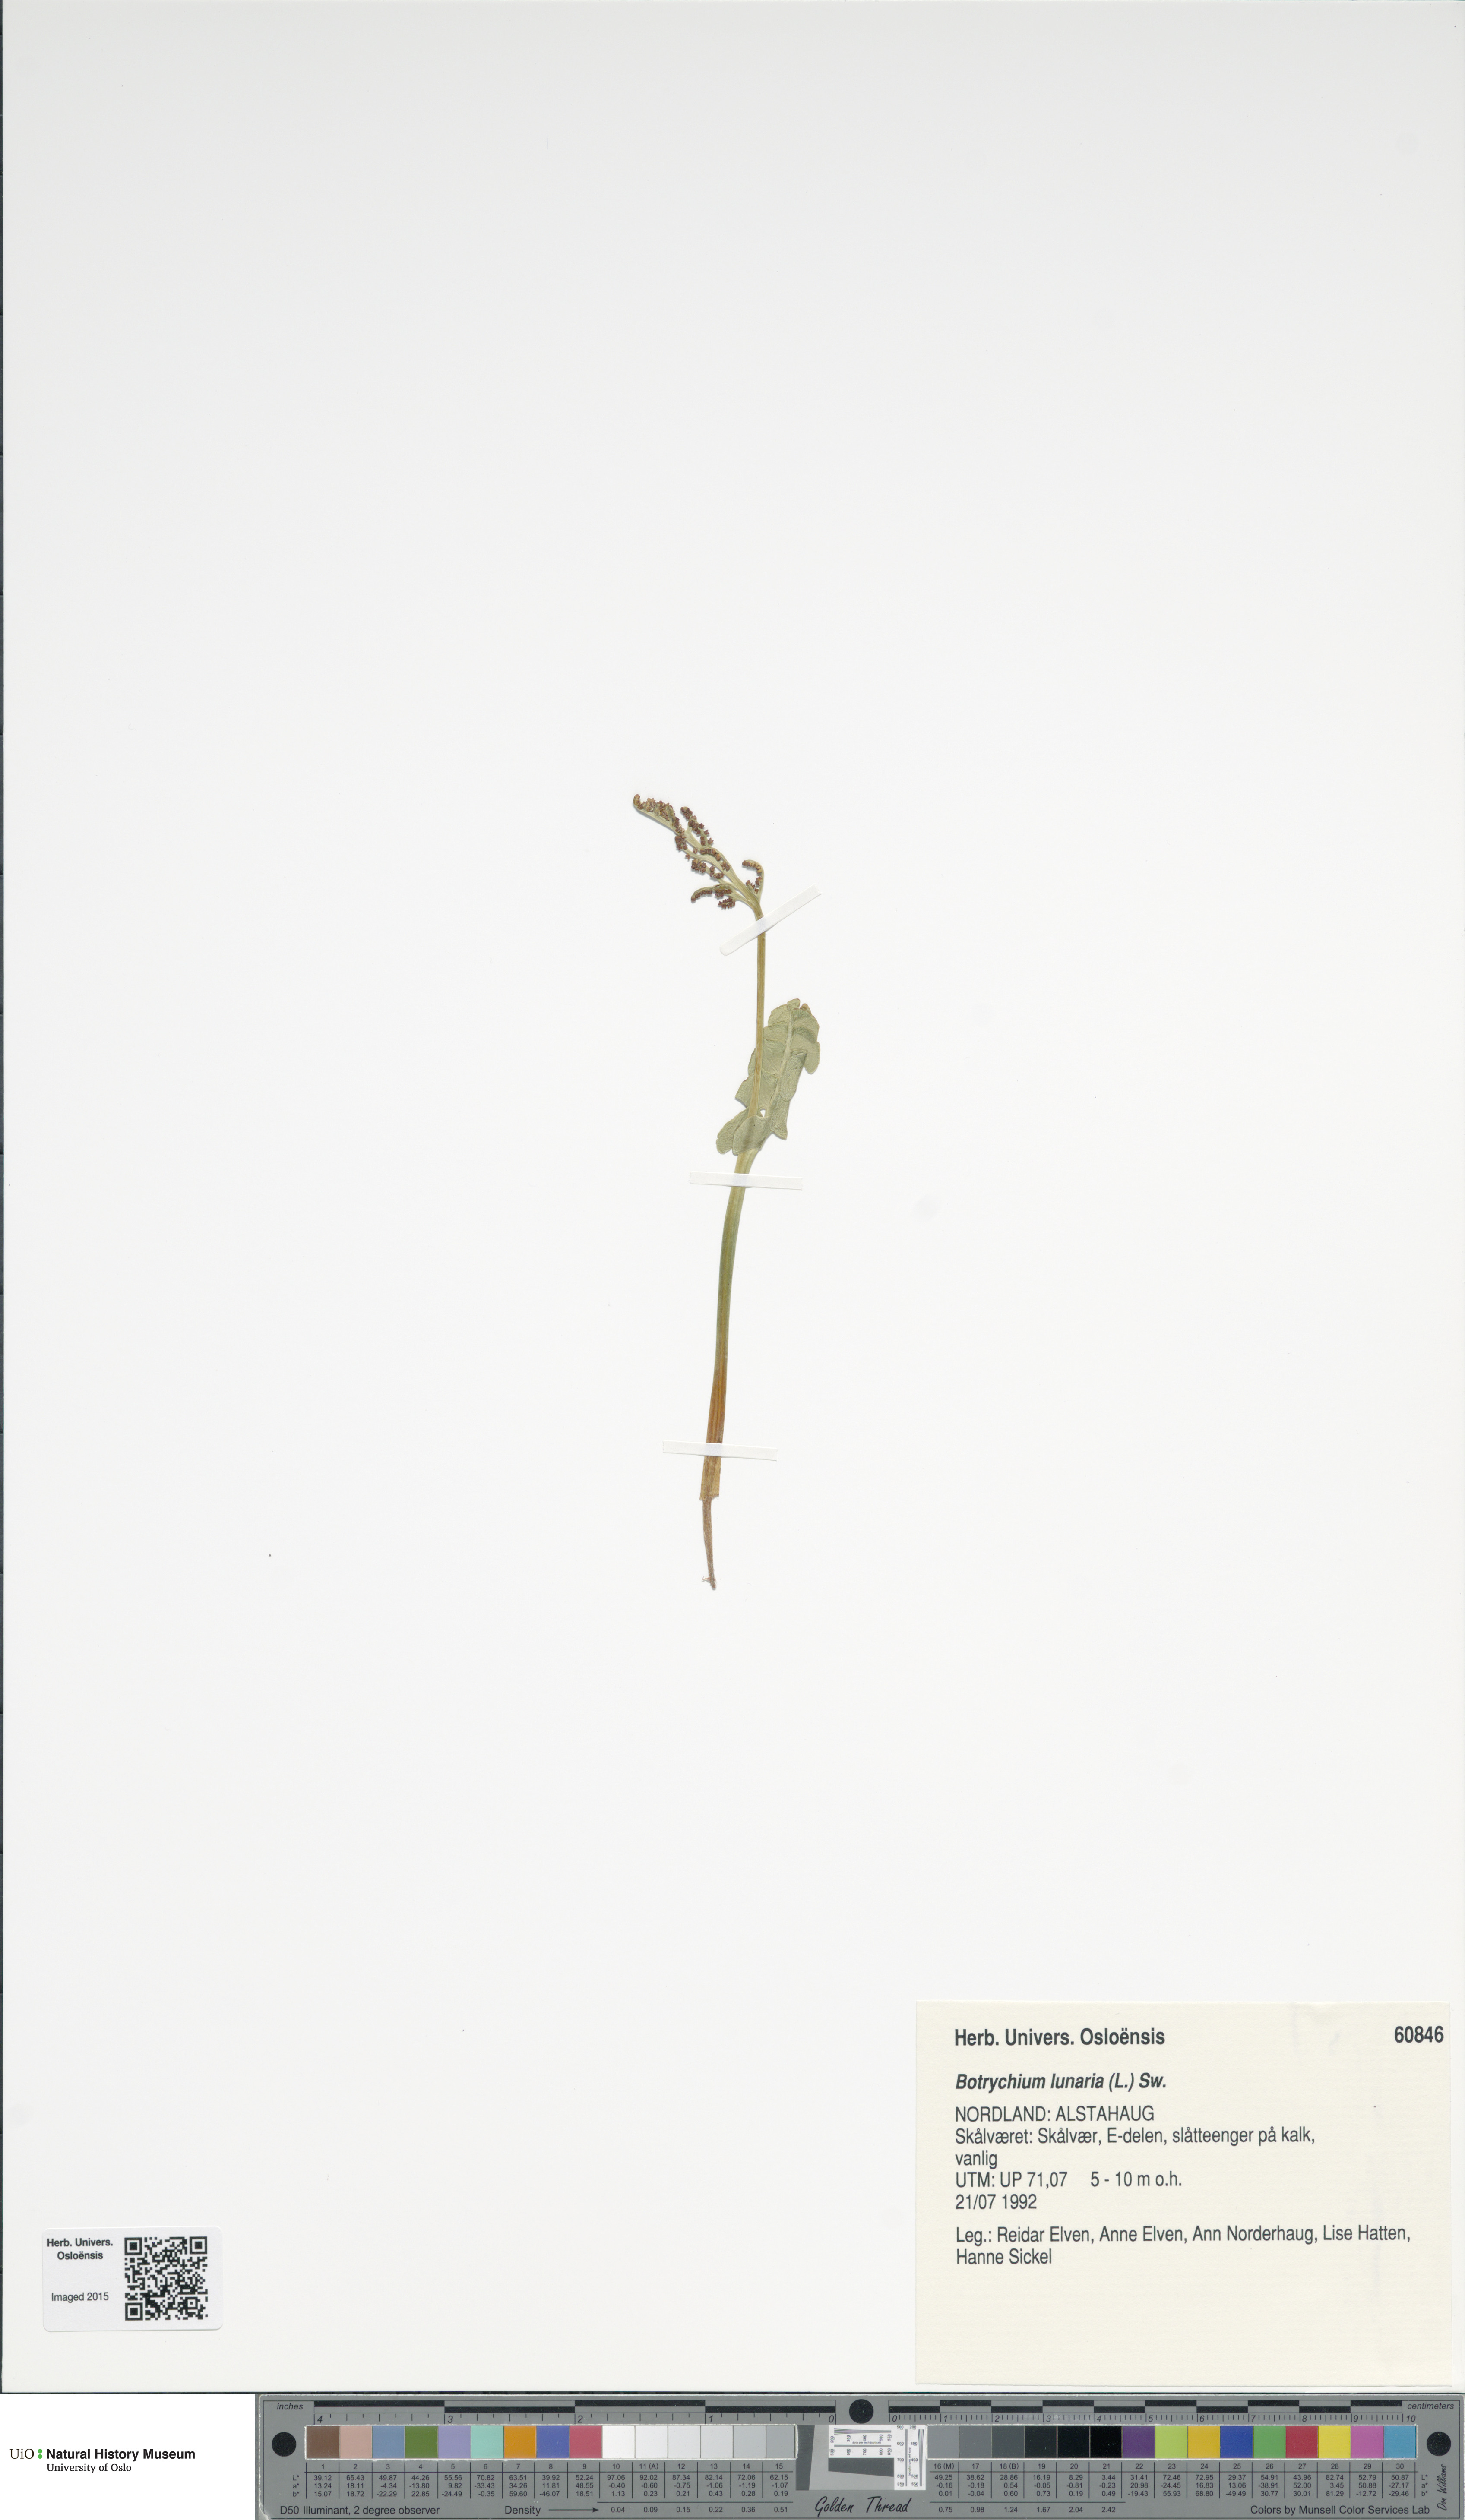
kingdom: Plantae
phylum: Tracheophyta
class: Polypodiopsida
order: Ophioglossales
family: Ophioglossaceae
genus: Botrychium
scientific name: Botrychium lunaria
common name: Moonwort
